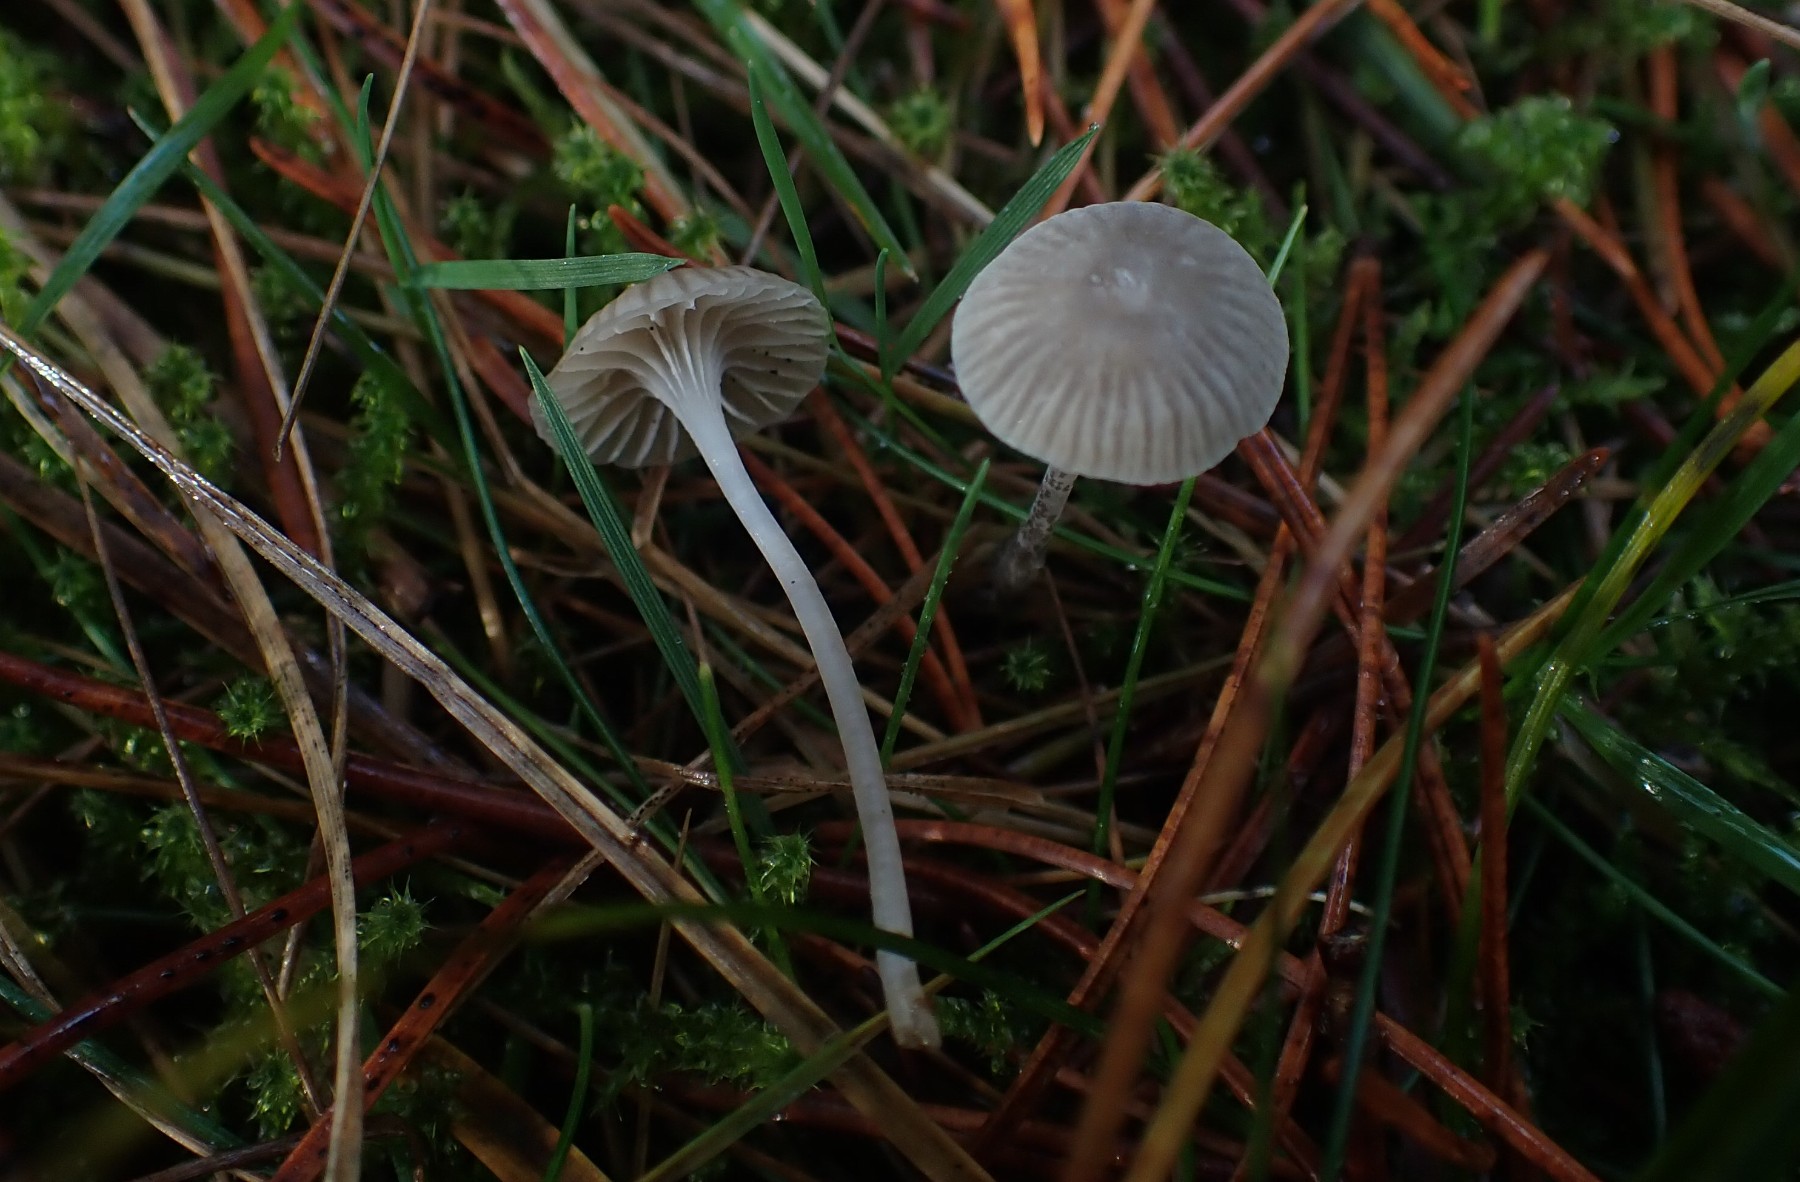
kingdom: Fungi
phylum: Basidiomycota
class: Agaricomycetes
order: Agaricales
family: Mycenaceae
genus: Mycena
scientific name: Mycena cinerella
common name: mel-huesvamp
